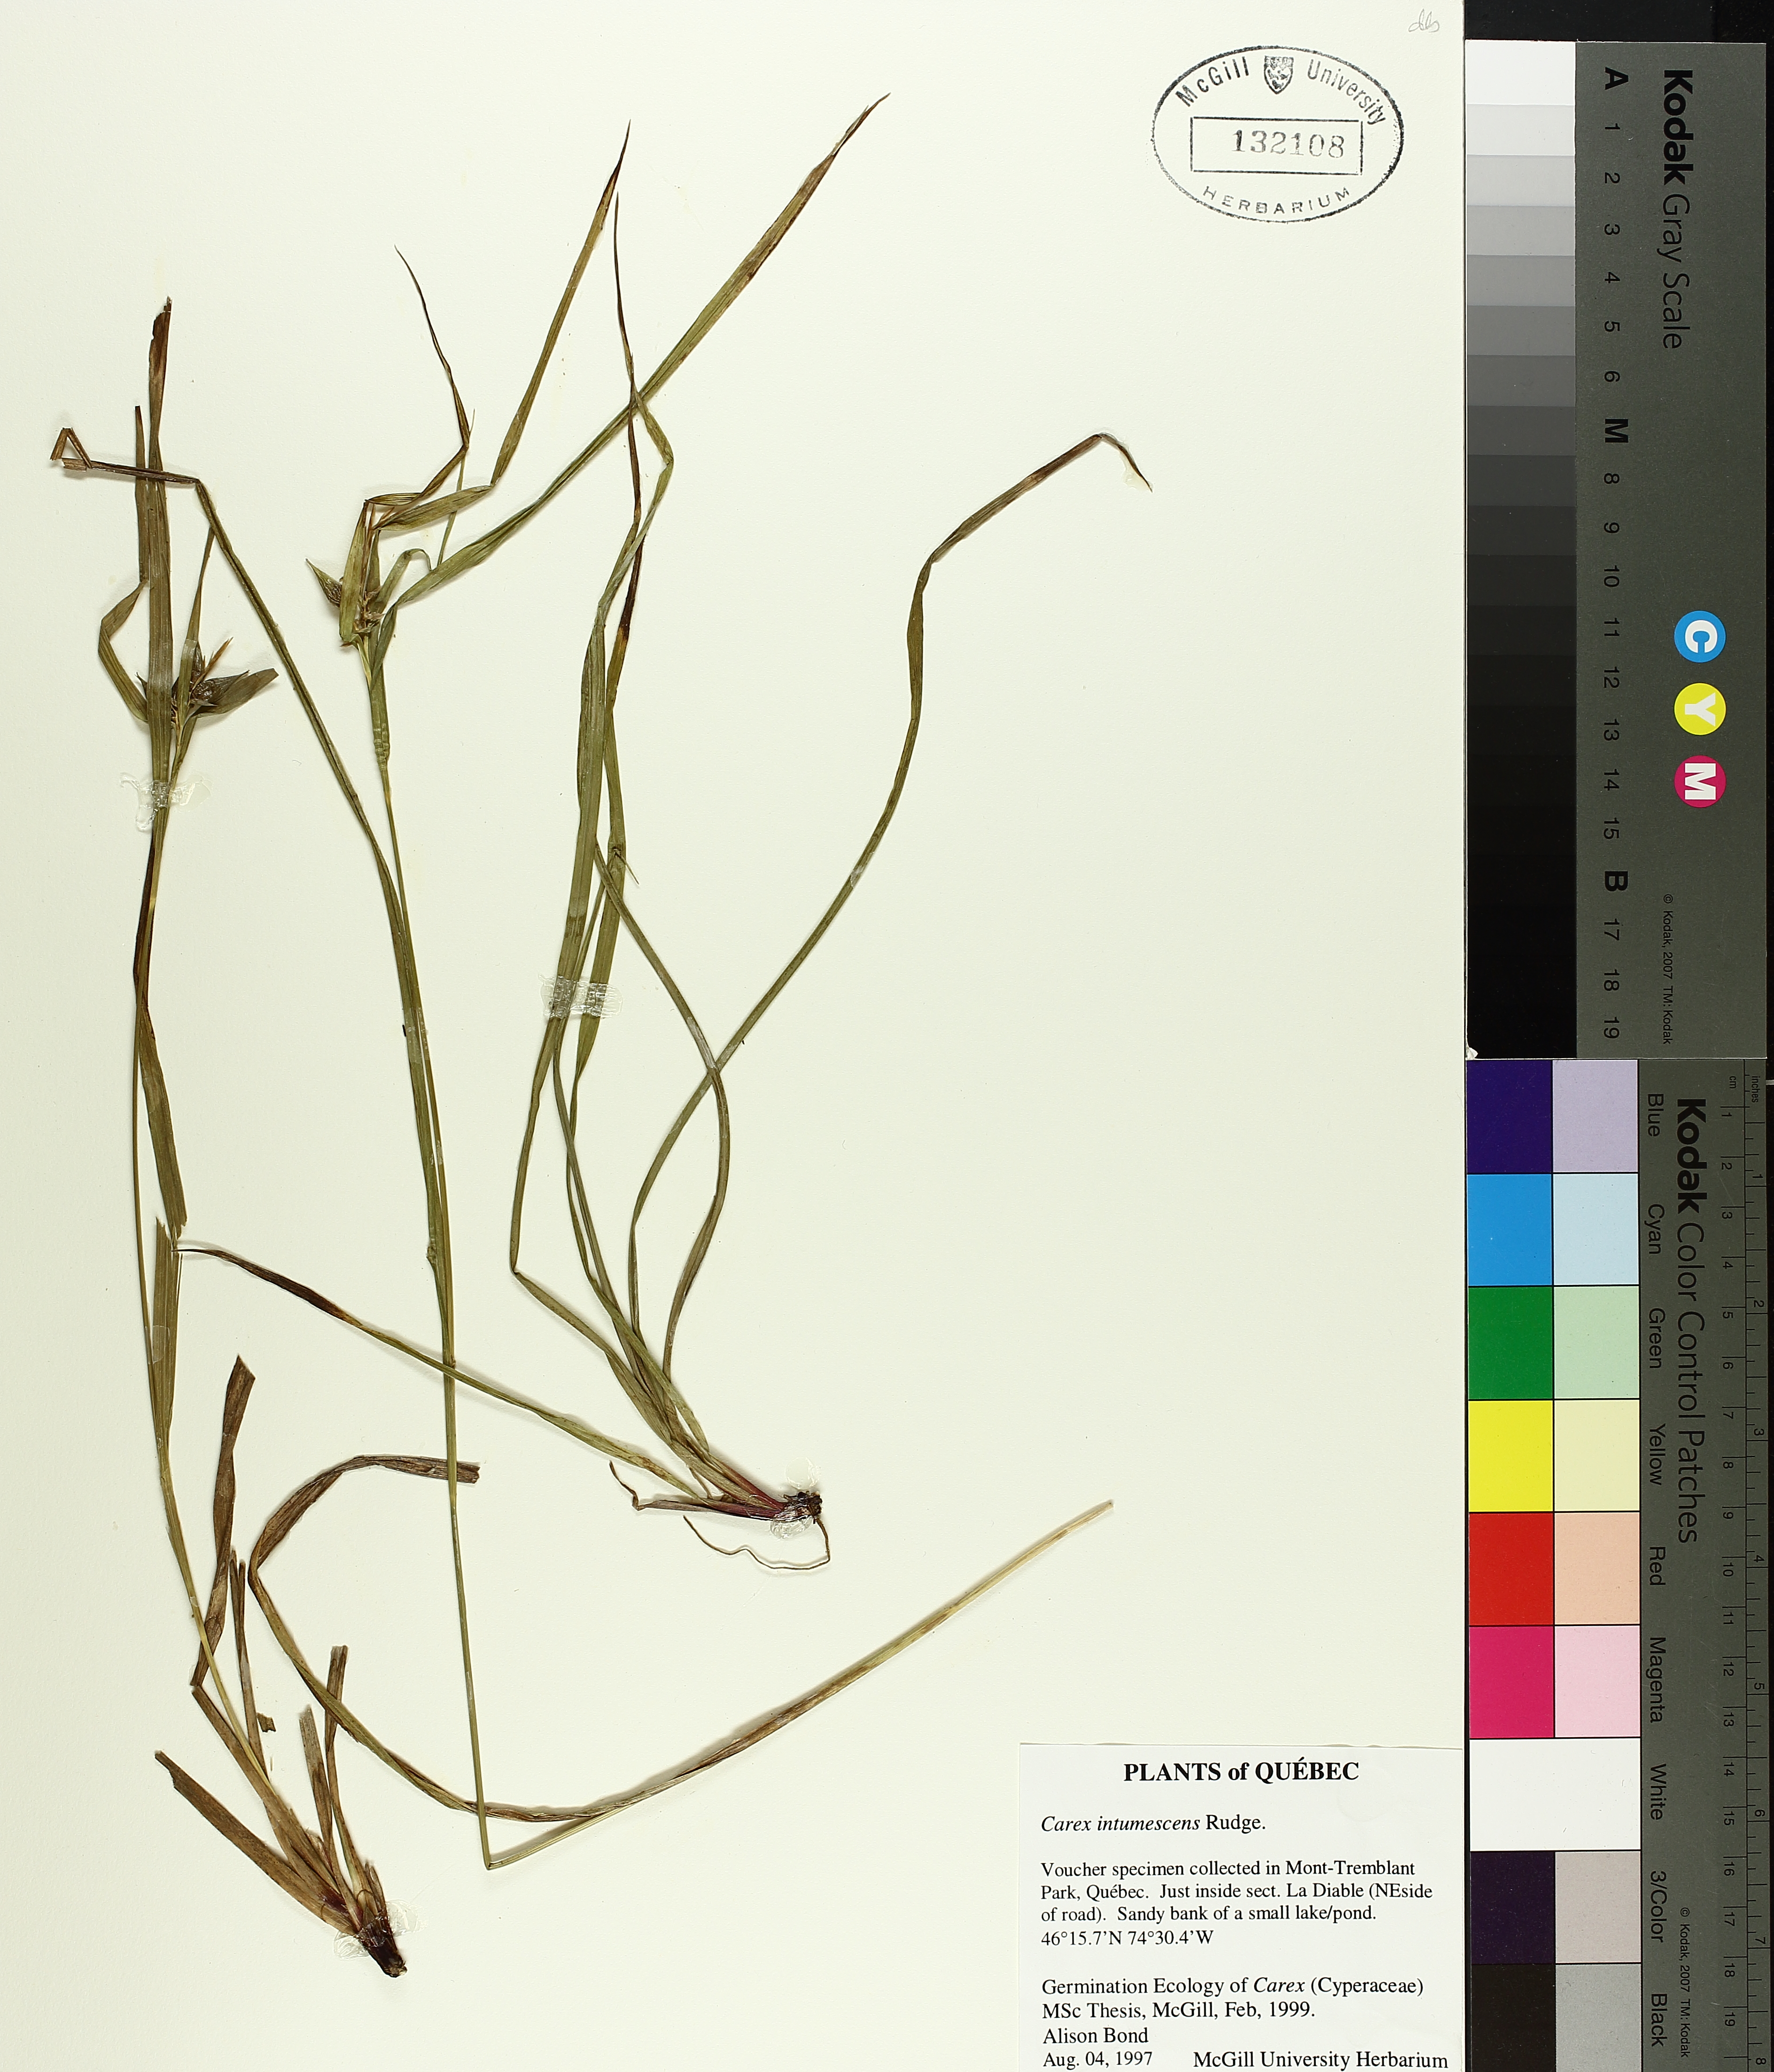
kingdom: Plantae
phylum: Tracheophyta
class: Liliopsida
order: Poales
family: Cyperaceae
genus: Carex
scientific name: Carex intumescens
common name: Greater bladder sedge
